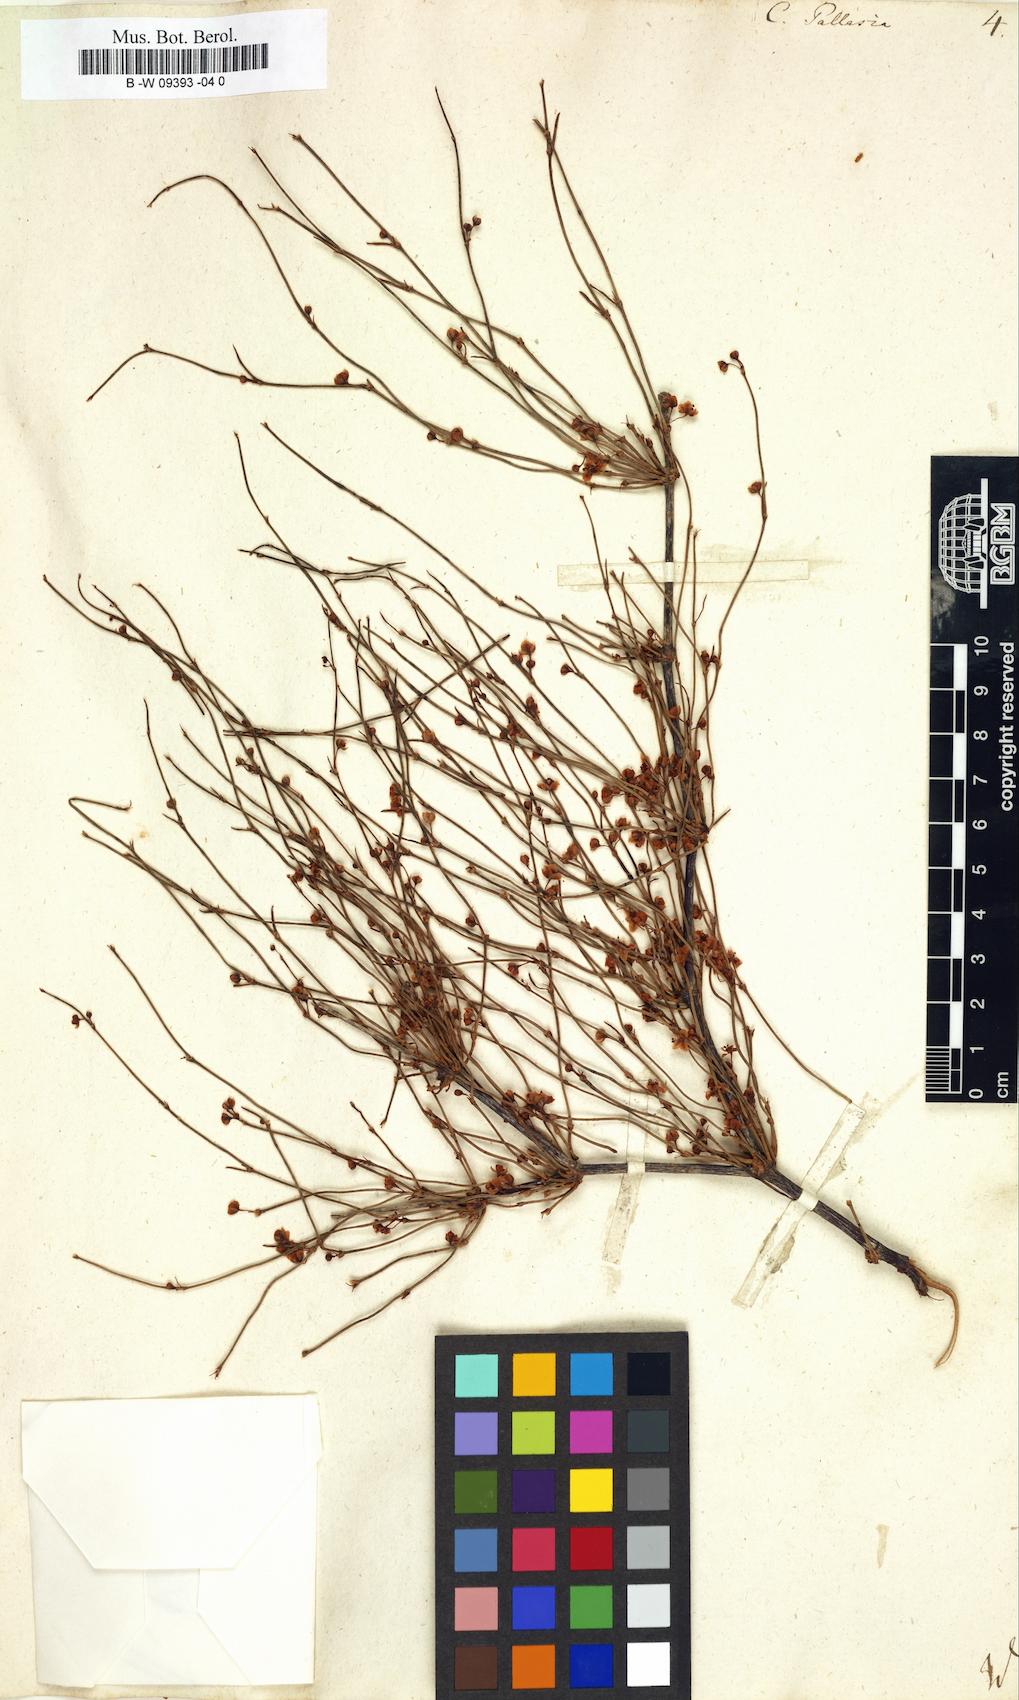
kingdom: Plantae
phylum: Tracheophyta
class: Magnoliopsida
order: Caryophyllales
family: Polygonaceae
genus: Calligonum
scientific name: Calligonum aphyllum
